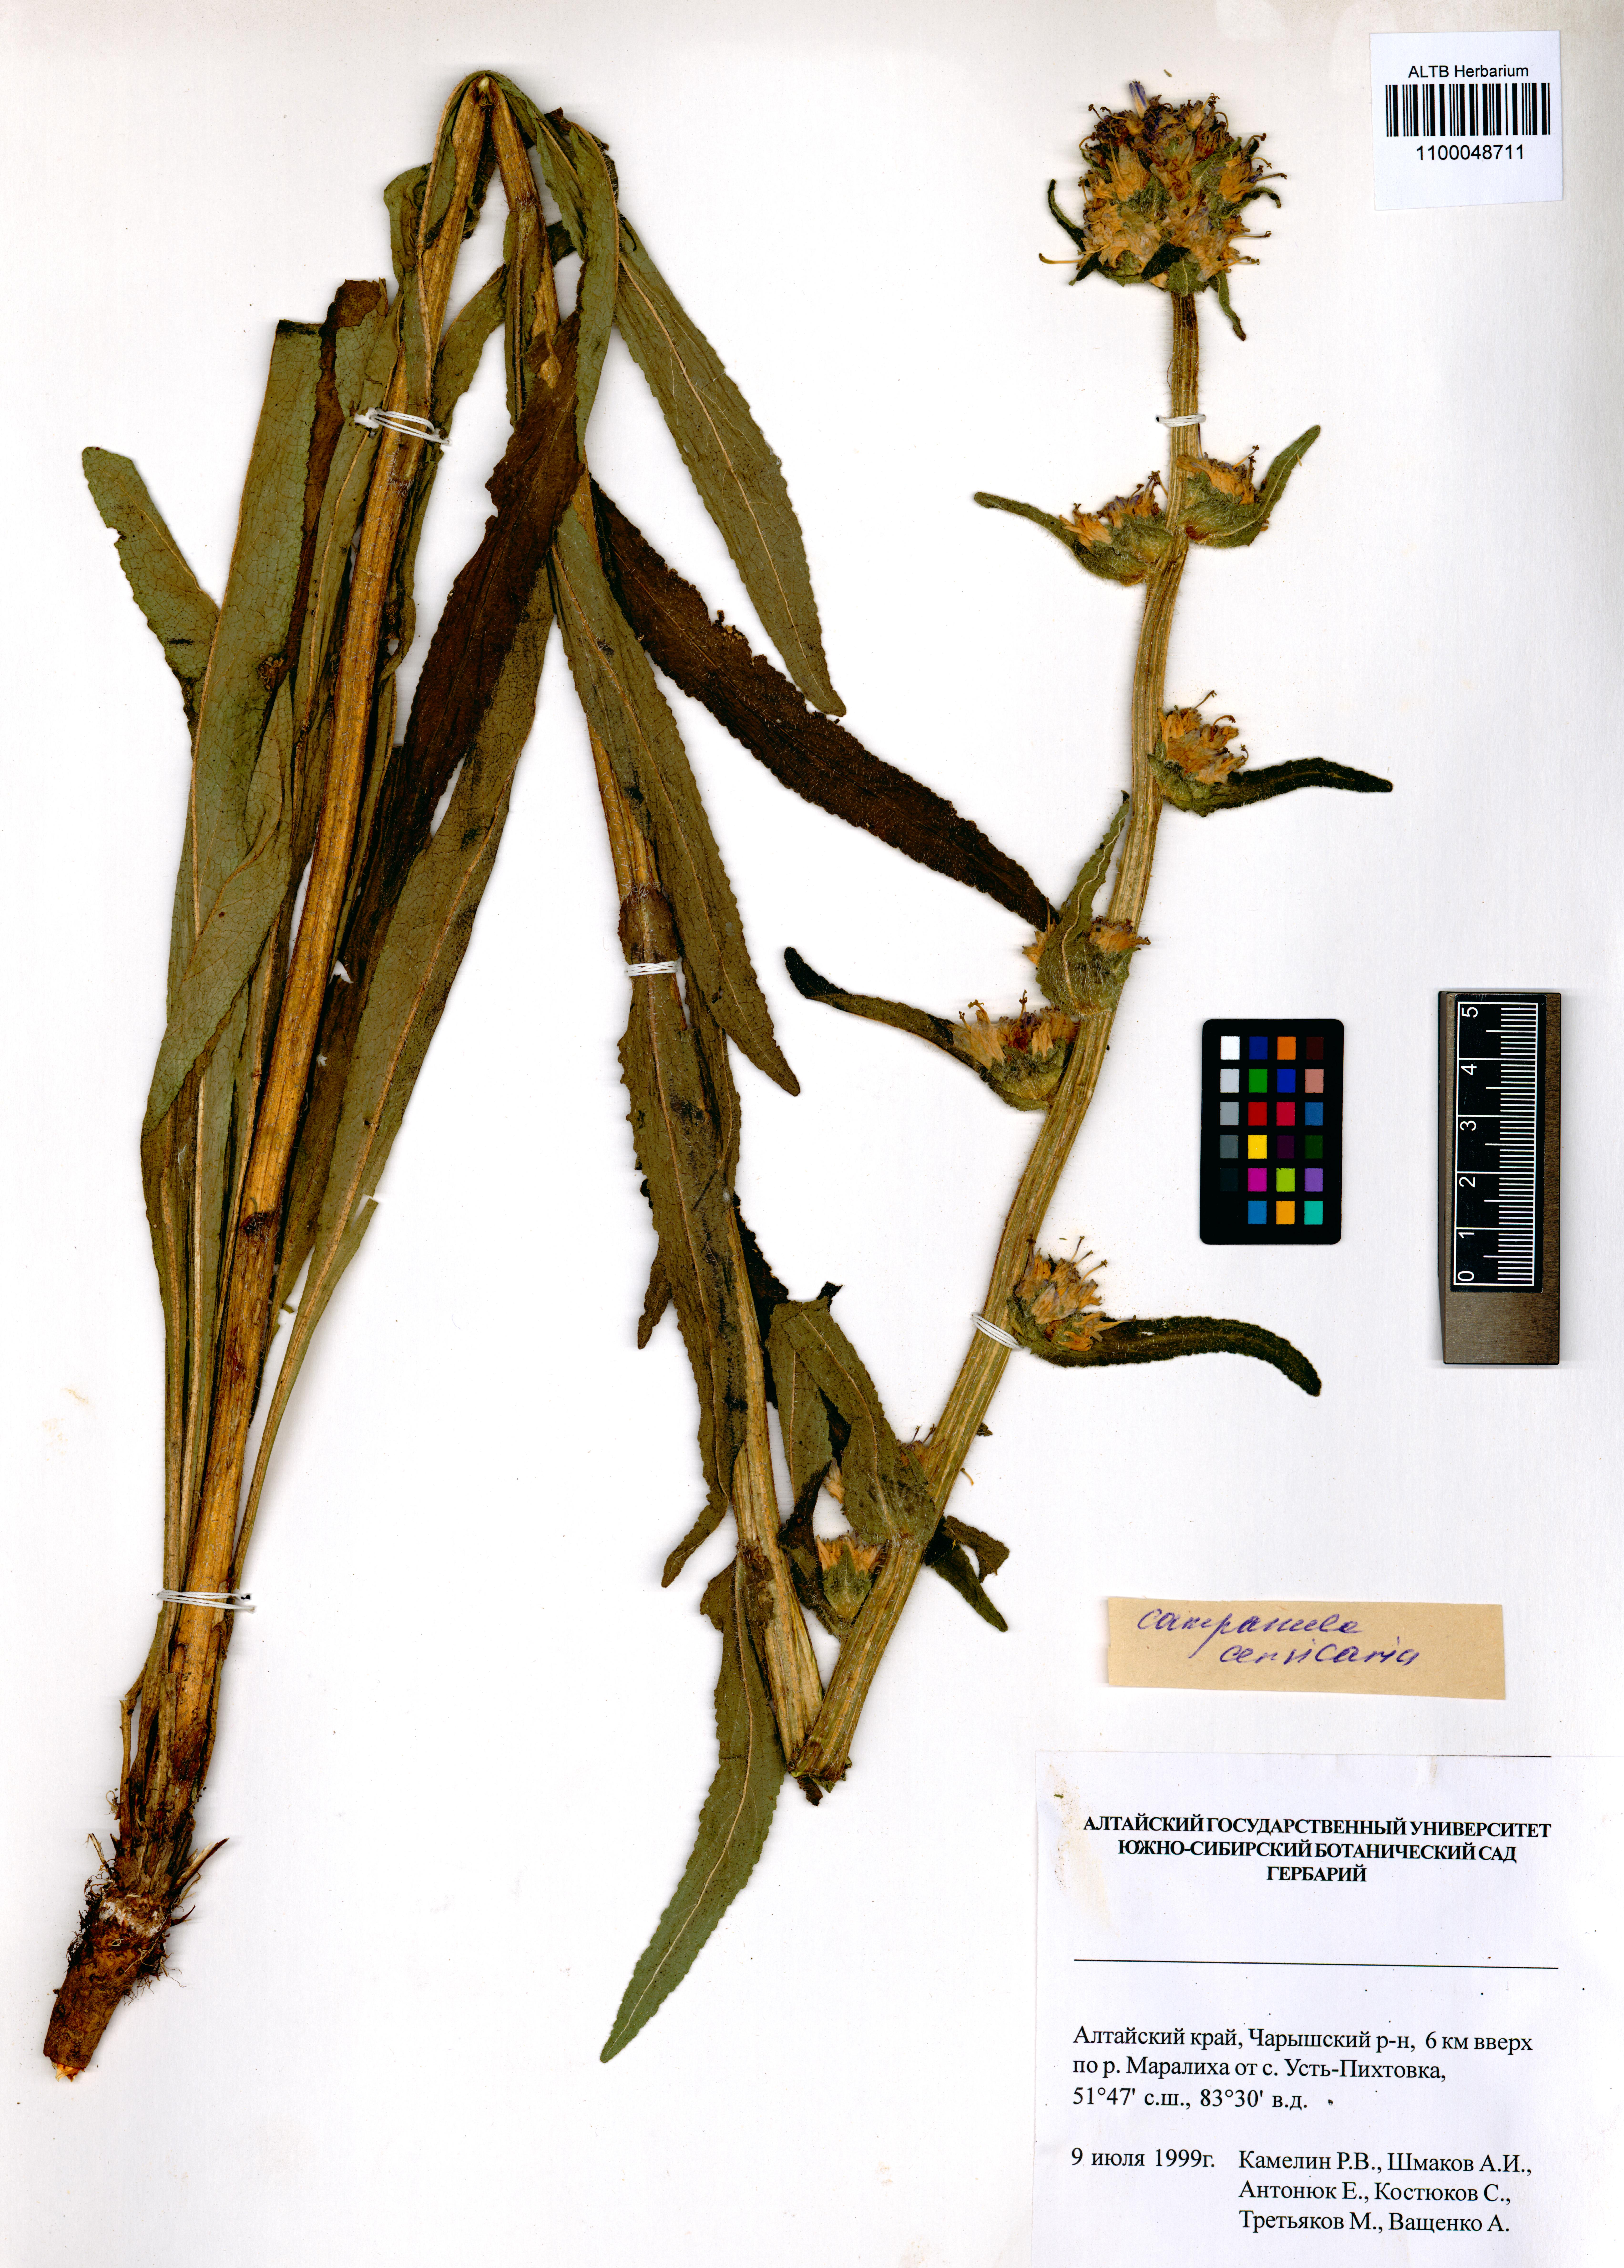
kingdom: Plantae
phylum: Tracheophyta
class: Magnoliopsida
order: Asterales
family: Campanulaceae
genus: Campanula
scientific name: Campanula cervicaria
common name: Bristly bellflower
